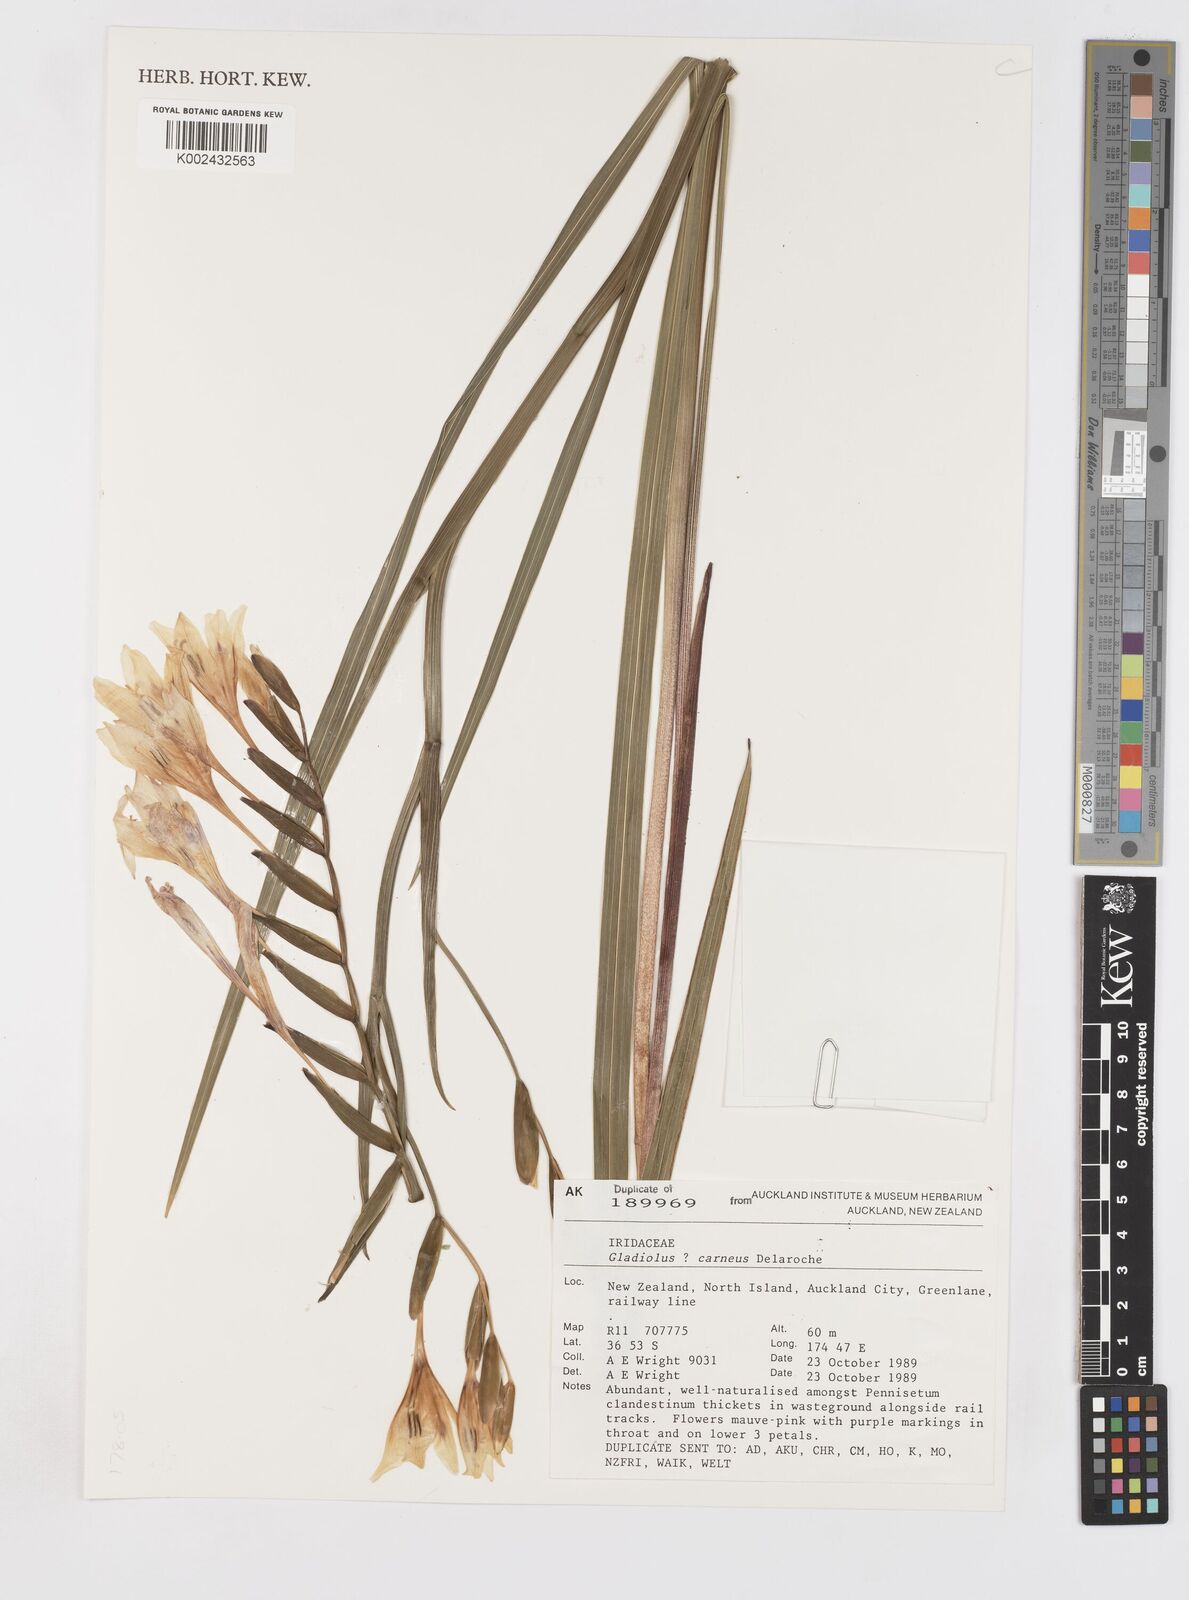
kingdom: Plantae
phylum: Tracheophyta
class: Liliopsida
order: Asparagales
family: Iridaceae
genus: Gladiolus
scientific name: Gladiolus carneus
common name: Painted-lady
